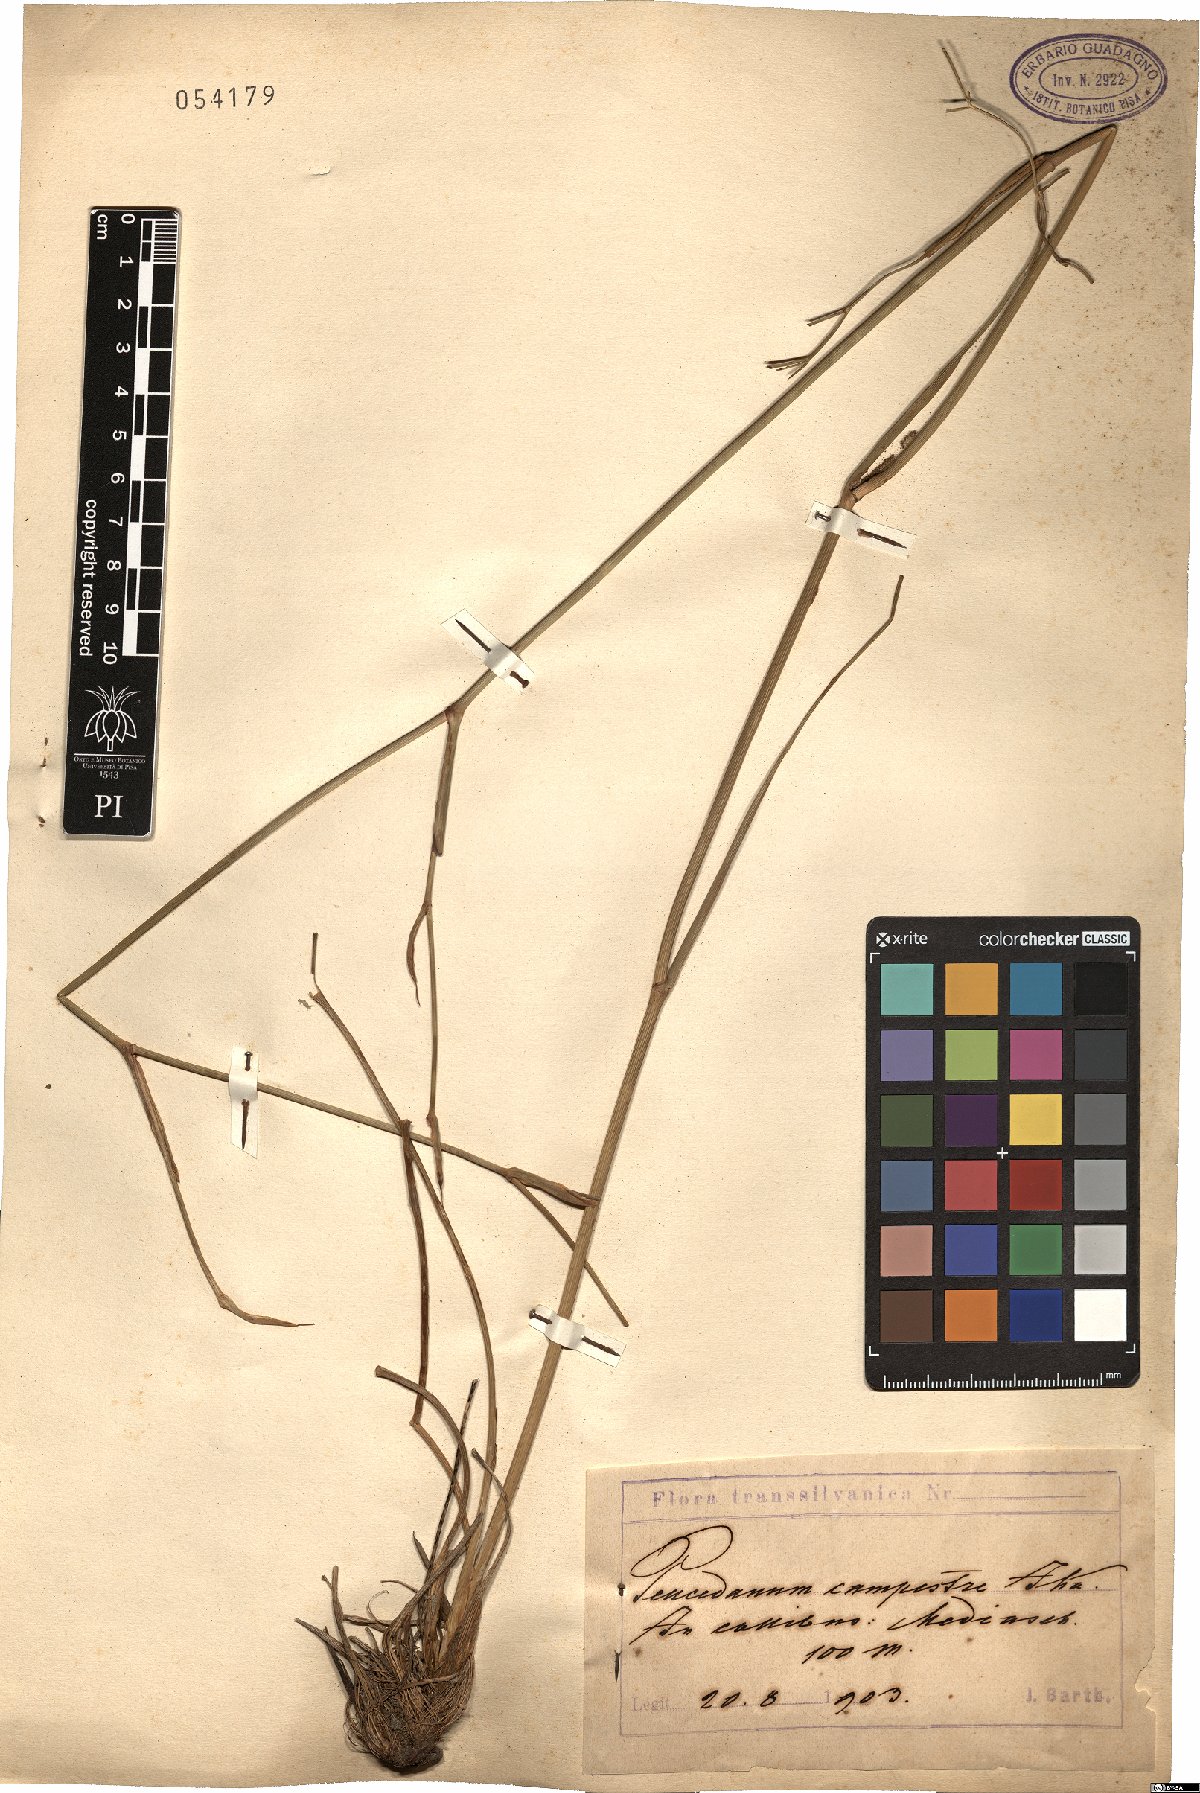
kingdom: Plantae
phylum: Tracheophyta
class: Magnoliopsida
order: Apiales
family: Apiaceae
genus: Peucedanum
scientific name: Peucedanum ruthenicum
